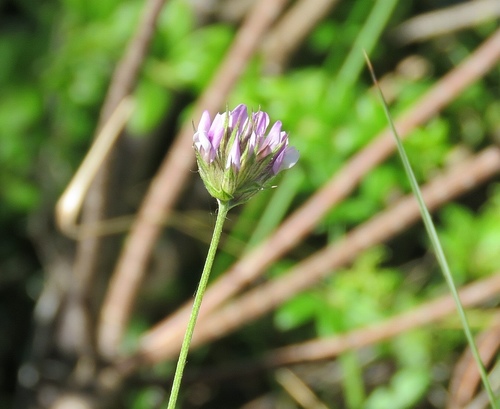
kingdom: Plantae
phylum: Tracheophyta
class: Magnoliopsida
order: Fabales
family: Fabaceae
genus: Bituminaria
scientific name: Bituminaria bituminosa
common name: Arabian pea
